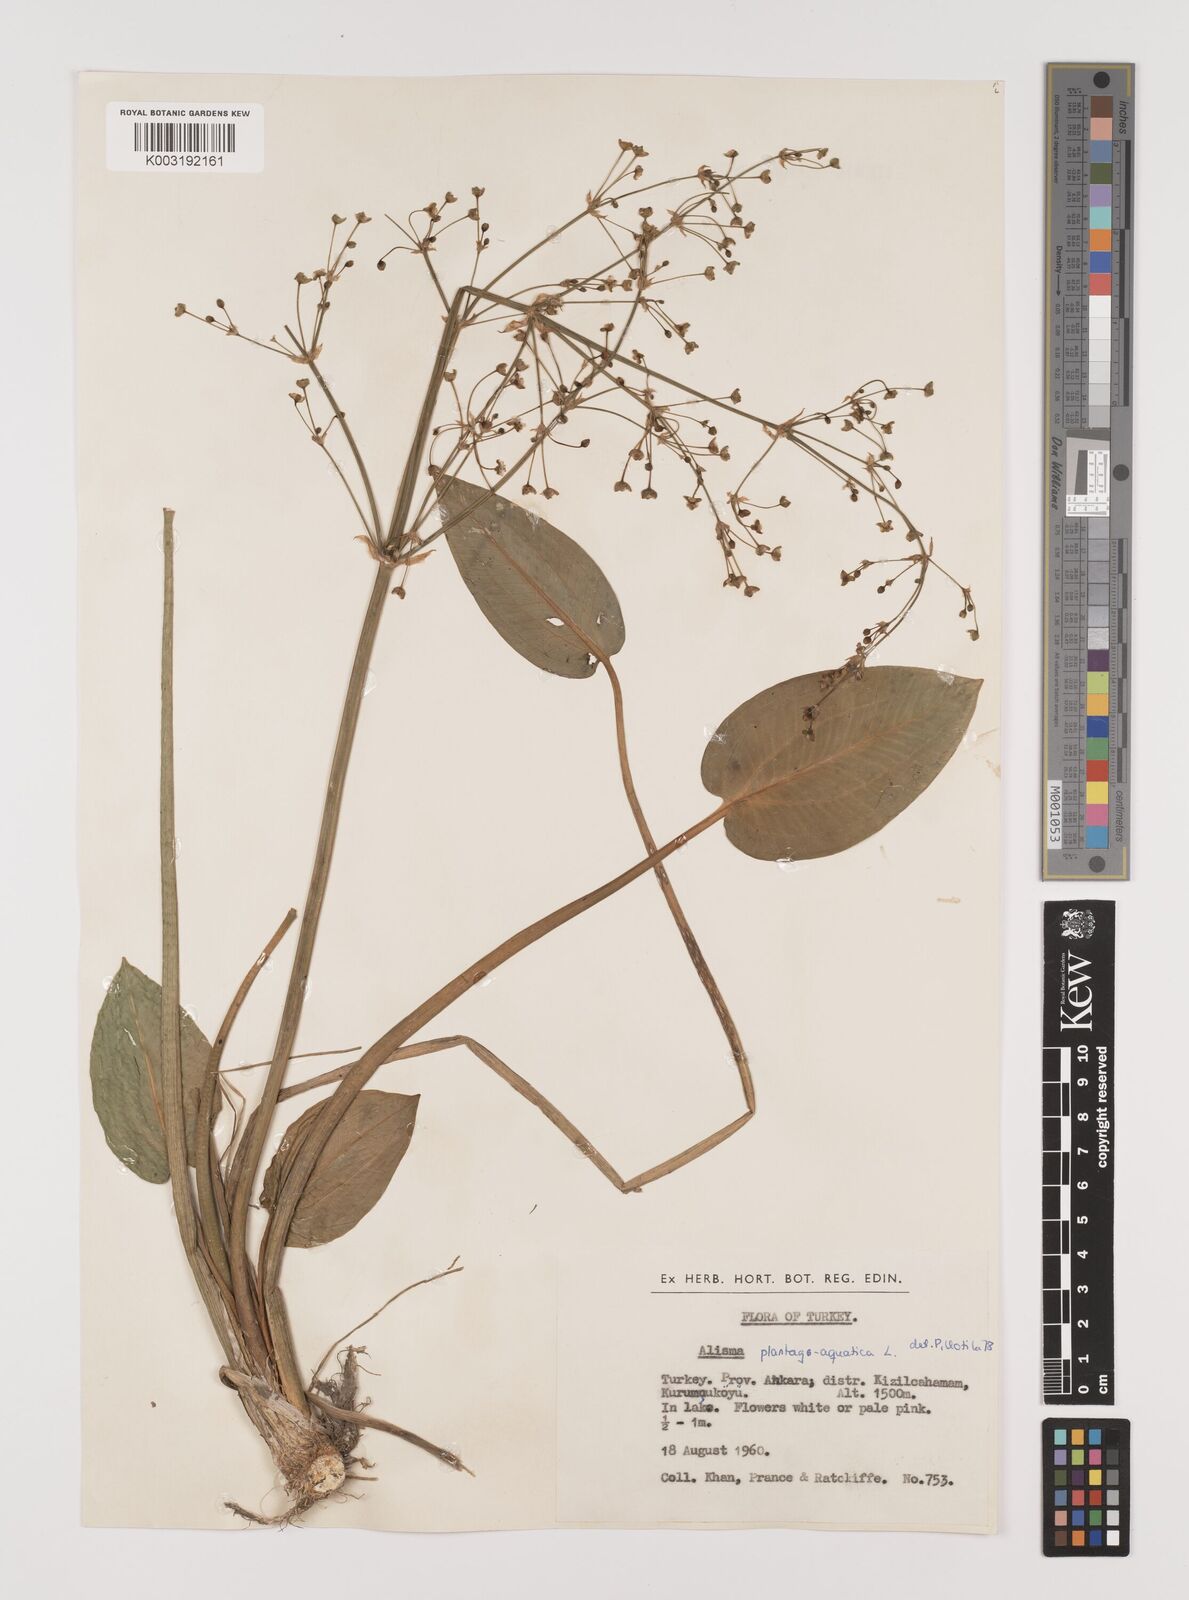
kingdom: Plantae
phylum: Tracheophyta
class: Liliopsida
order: Alismatales
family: Alismataceae
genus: Alisma
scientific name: Alisma plantago-aquatica
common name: Water-plantain
